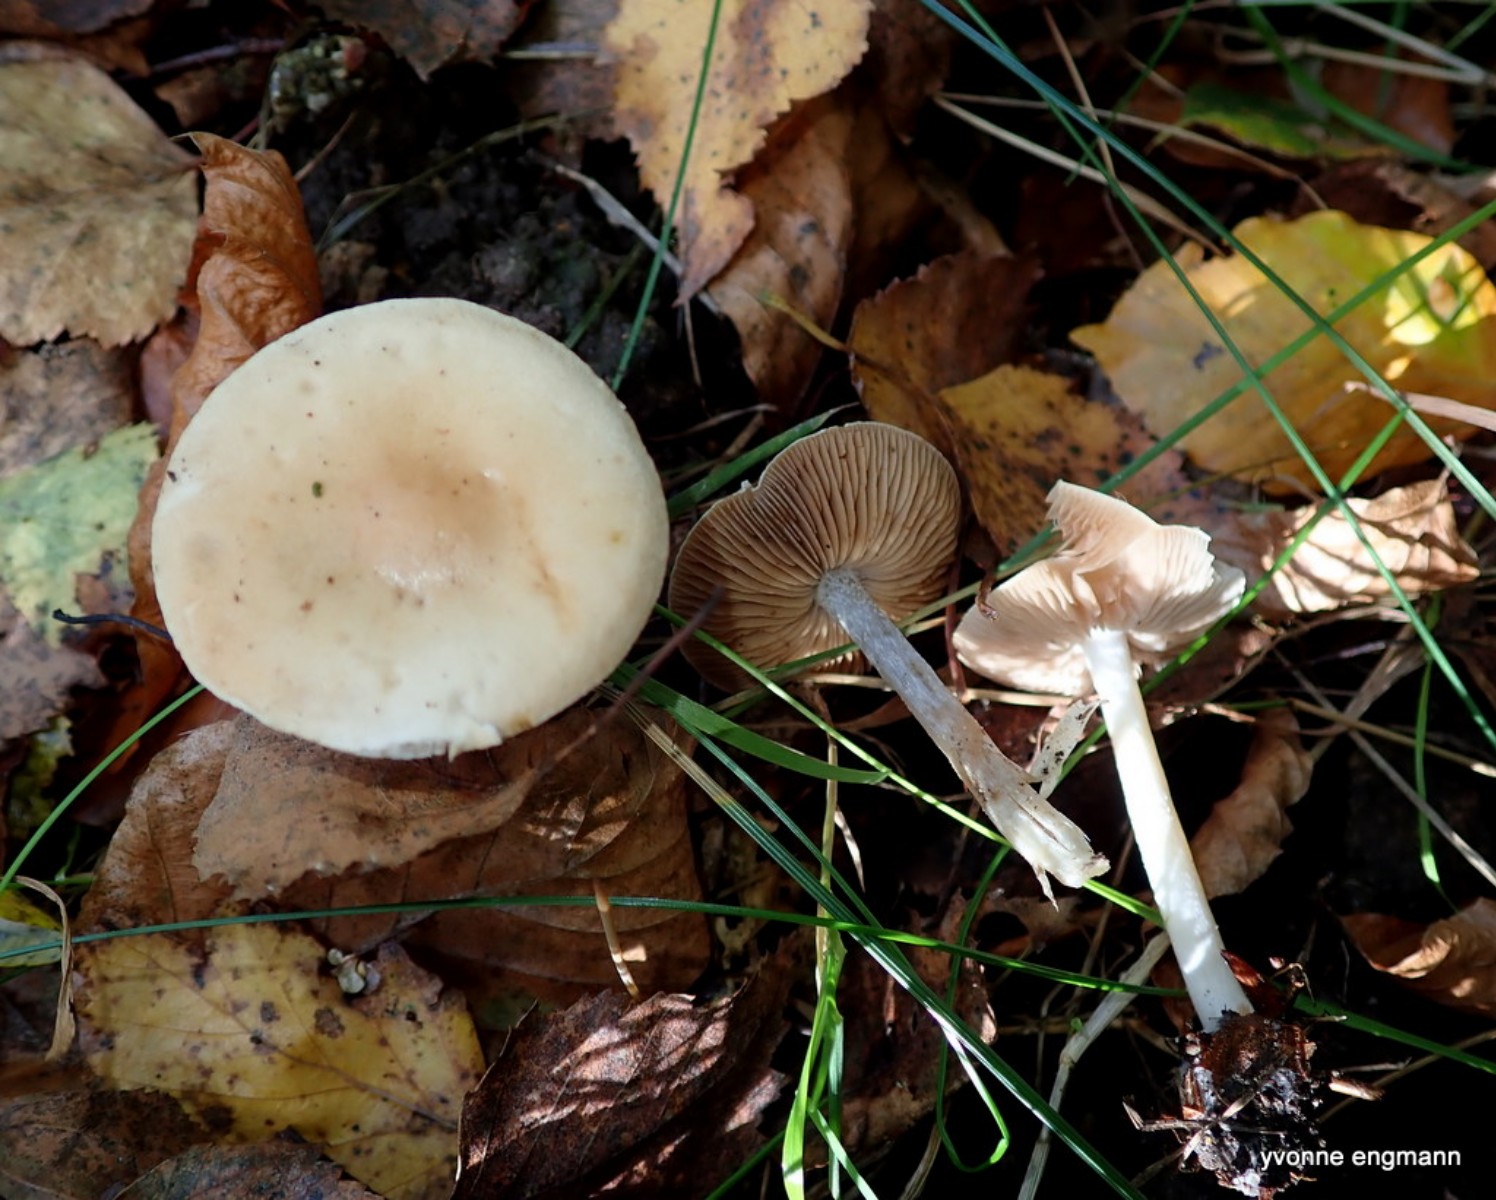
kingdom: Fungi
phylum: Basidiomycota
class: Agaricomycetes
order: Agaricales
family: Hymenogastraceae
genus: Hebeloma
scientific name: Hebeloma
